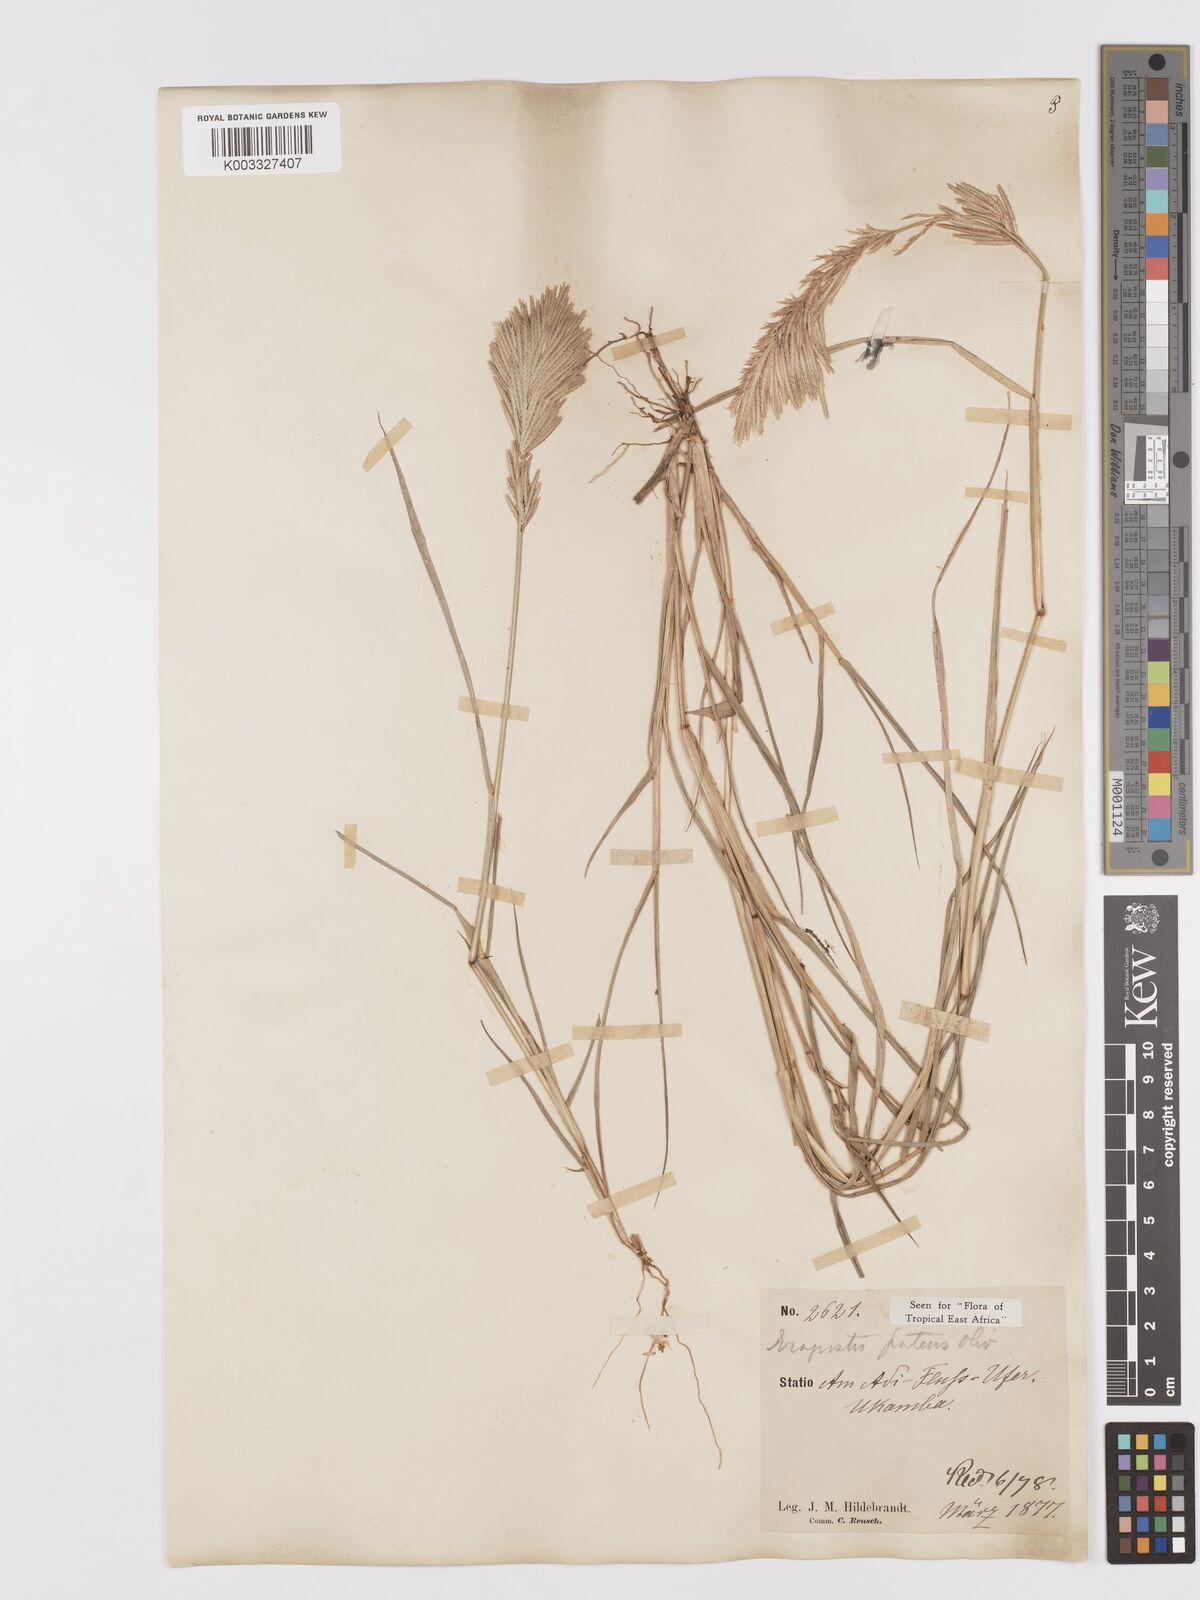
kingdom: Plantae
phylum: Tracheophyta
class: Liliopsida
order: Poales
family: Poaceae
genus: Eragrostis
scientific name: Eragrostis patens
